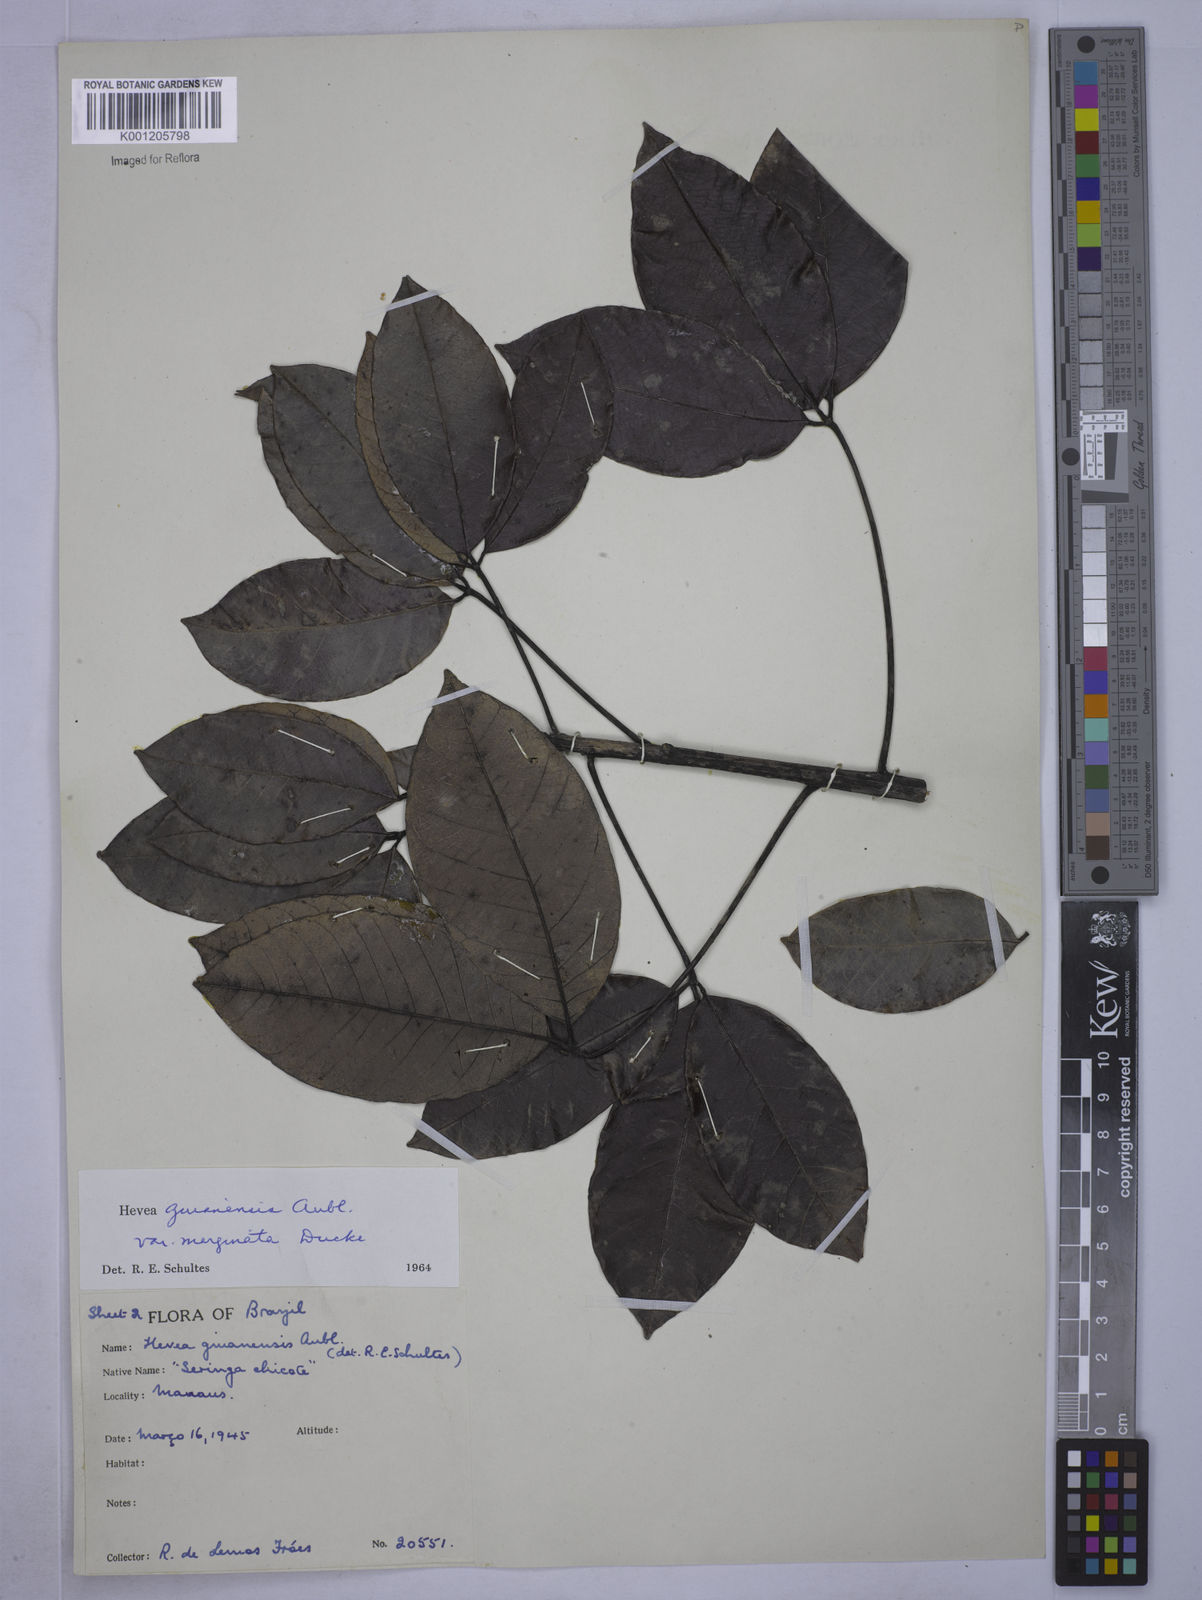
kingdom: Plantae
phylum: Tracheophyta
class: Magnoliopsida
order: Malpighiales
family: Euphorbiaceae
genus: Hevea
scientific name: Hevea guianensis
